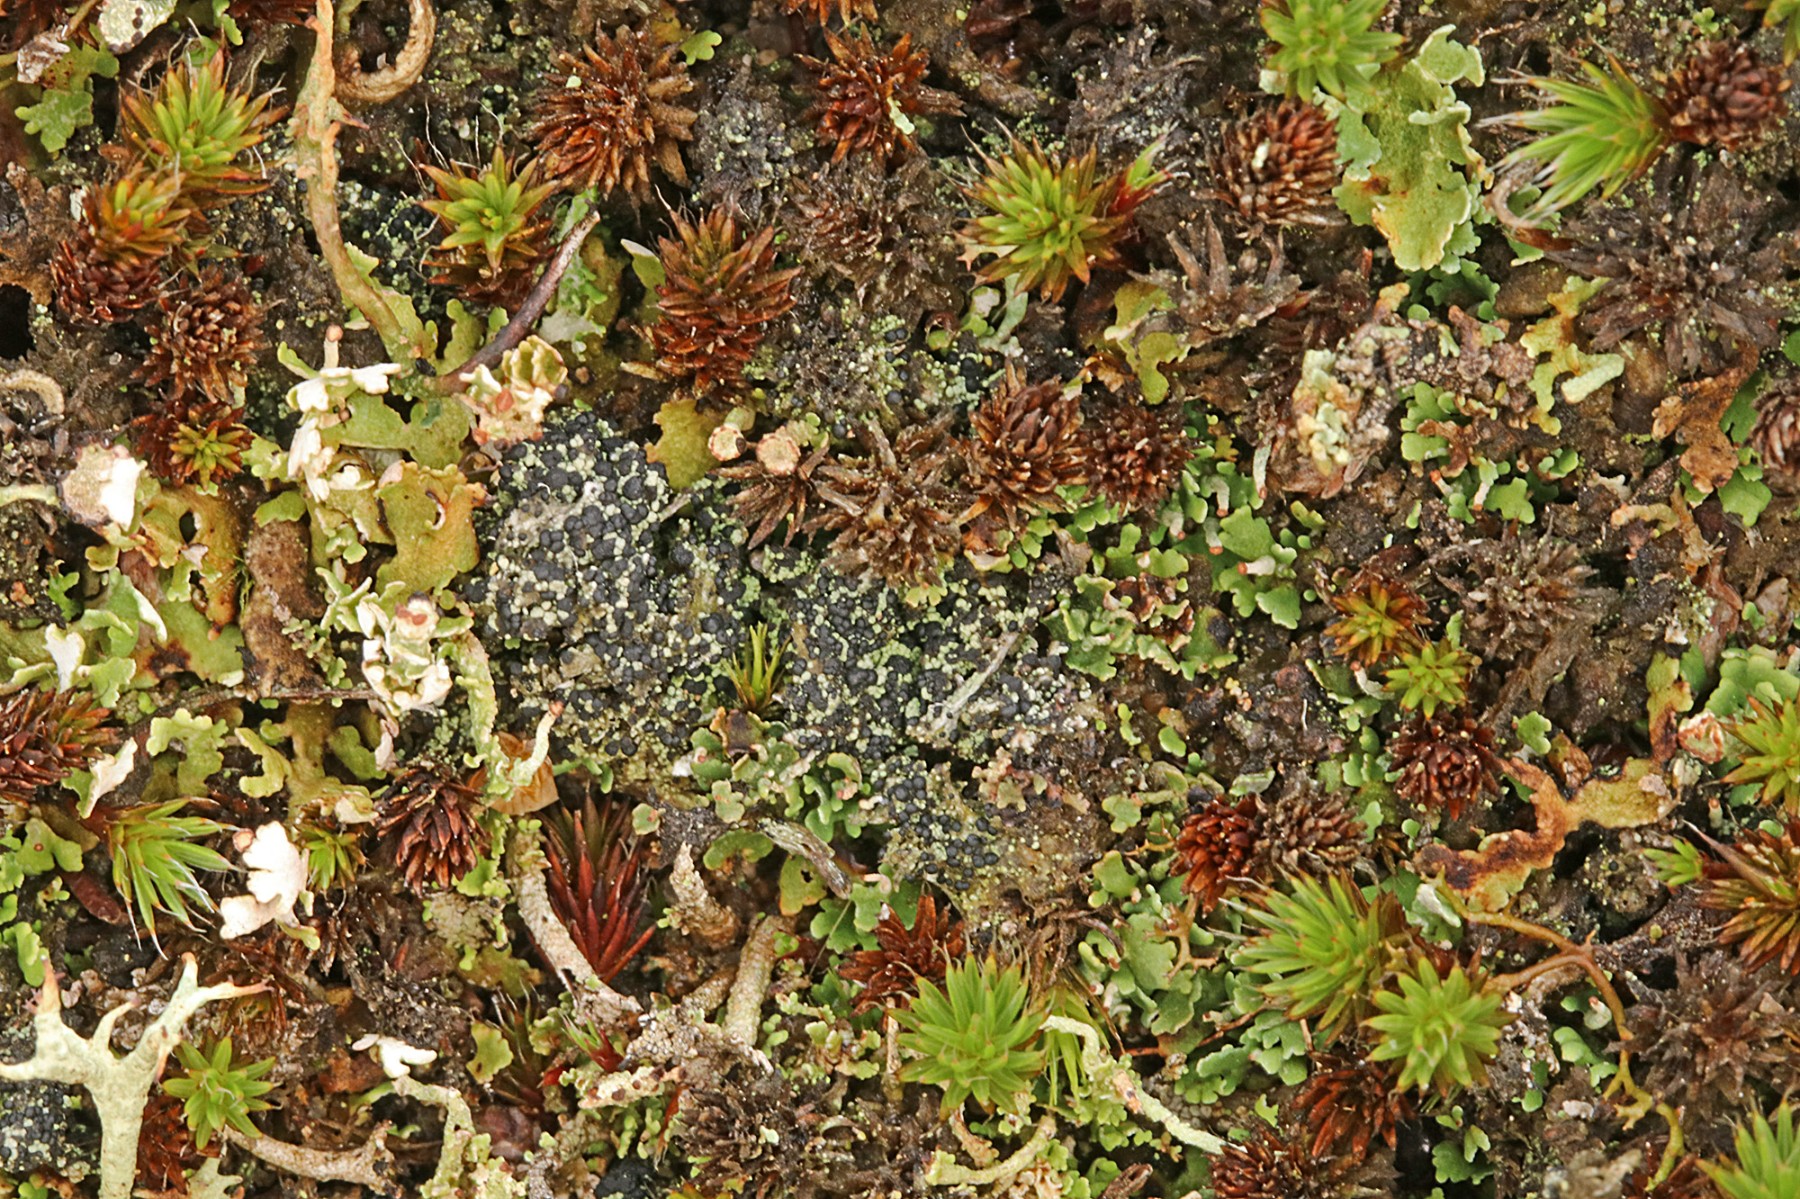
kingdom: Fungi
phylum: Ascomycota
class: Lecanoromycetes
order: Lecanorales
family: Byssolomataceae
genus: Micarea
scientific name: Micarea lignaria
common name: tørve-knaplav
